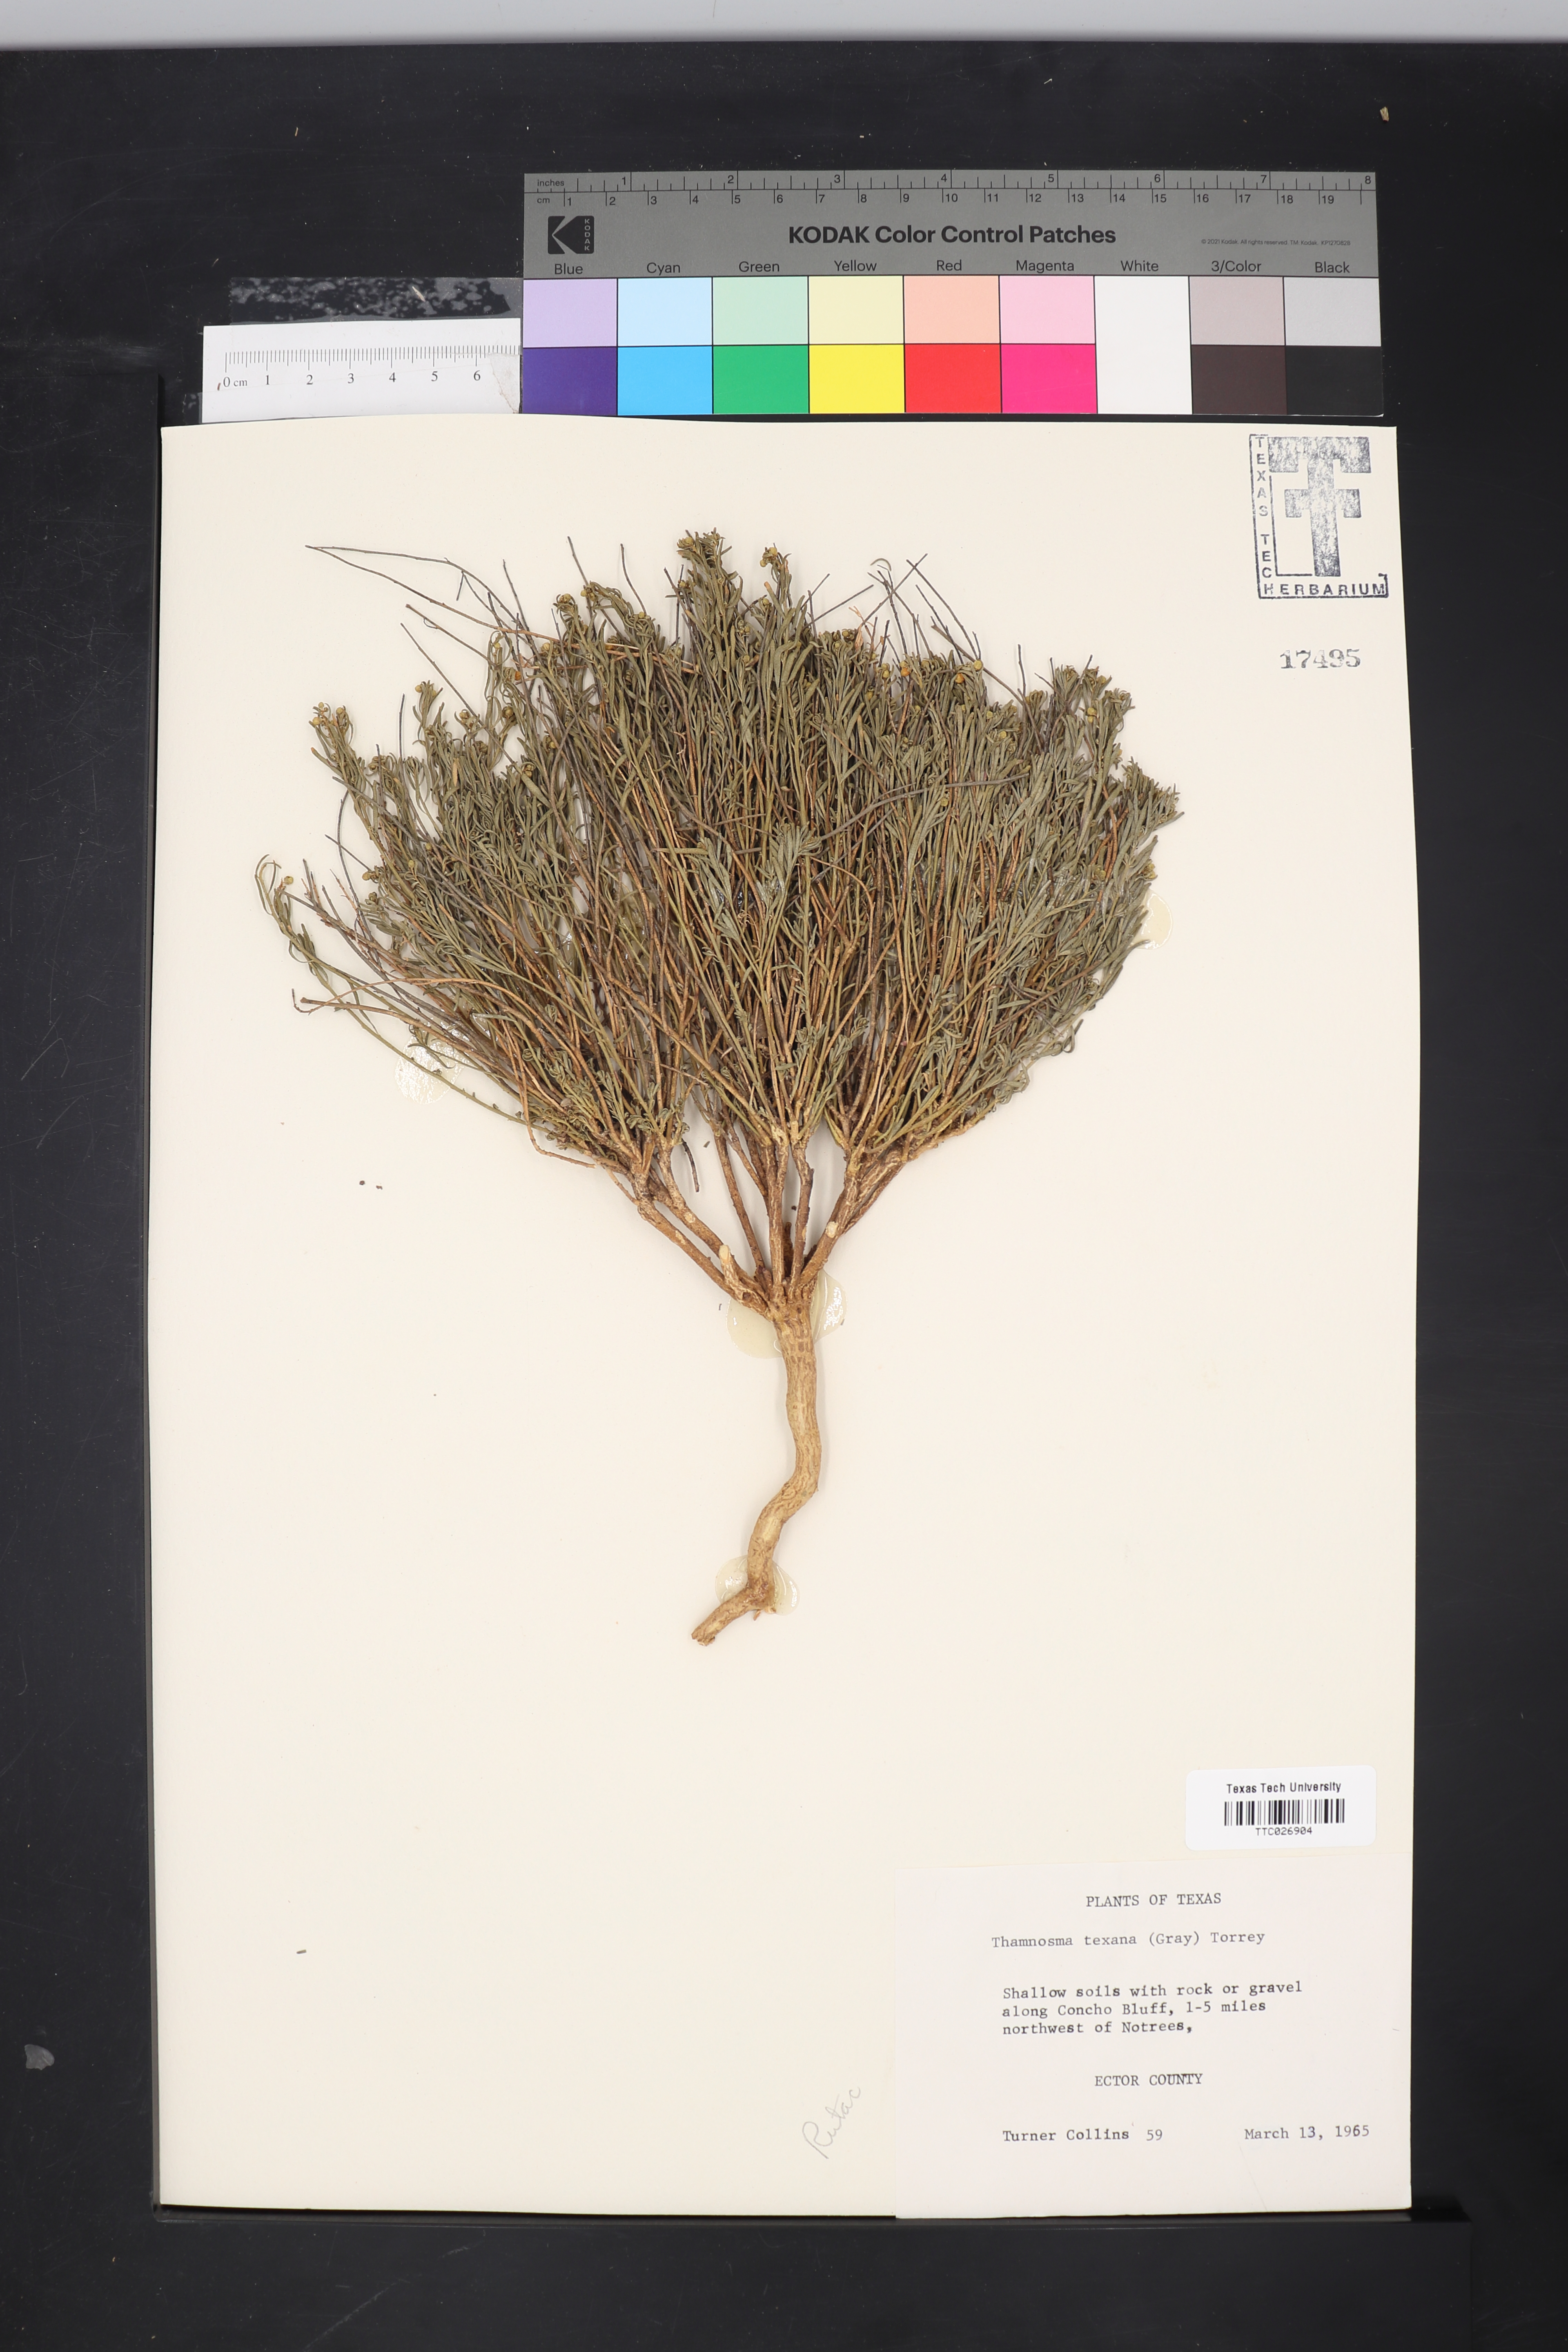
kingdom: Plantae
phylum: Tracheophyta
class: Magnoliopsida
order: Sapindales
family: Rutaceae
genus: Thamnosma
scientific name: Thamnosma texana
